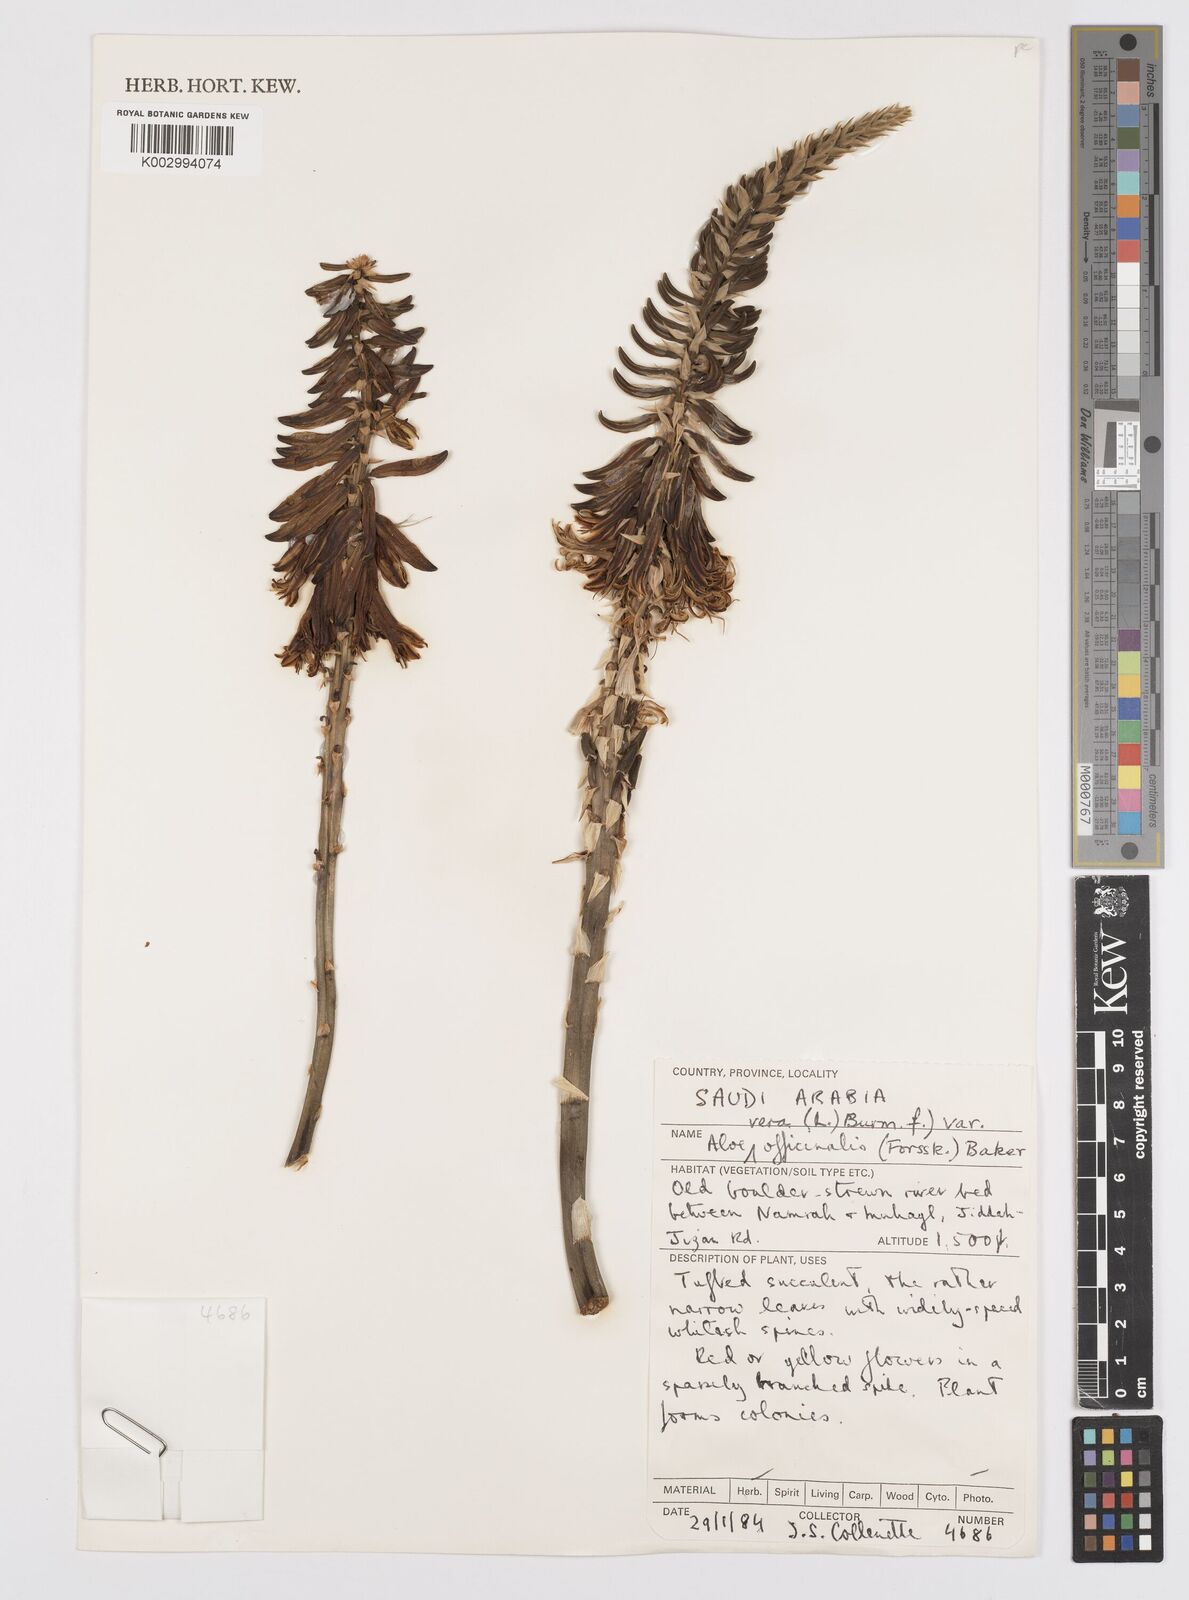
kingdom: Plantae
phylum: Tracheophyta
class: Liliopsida
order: Asparagales
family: Asphodelaceae
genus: Aloe
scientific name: Aloe officinalis
